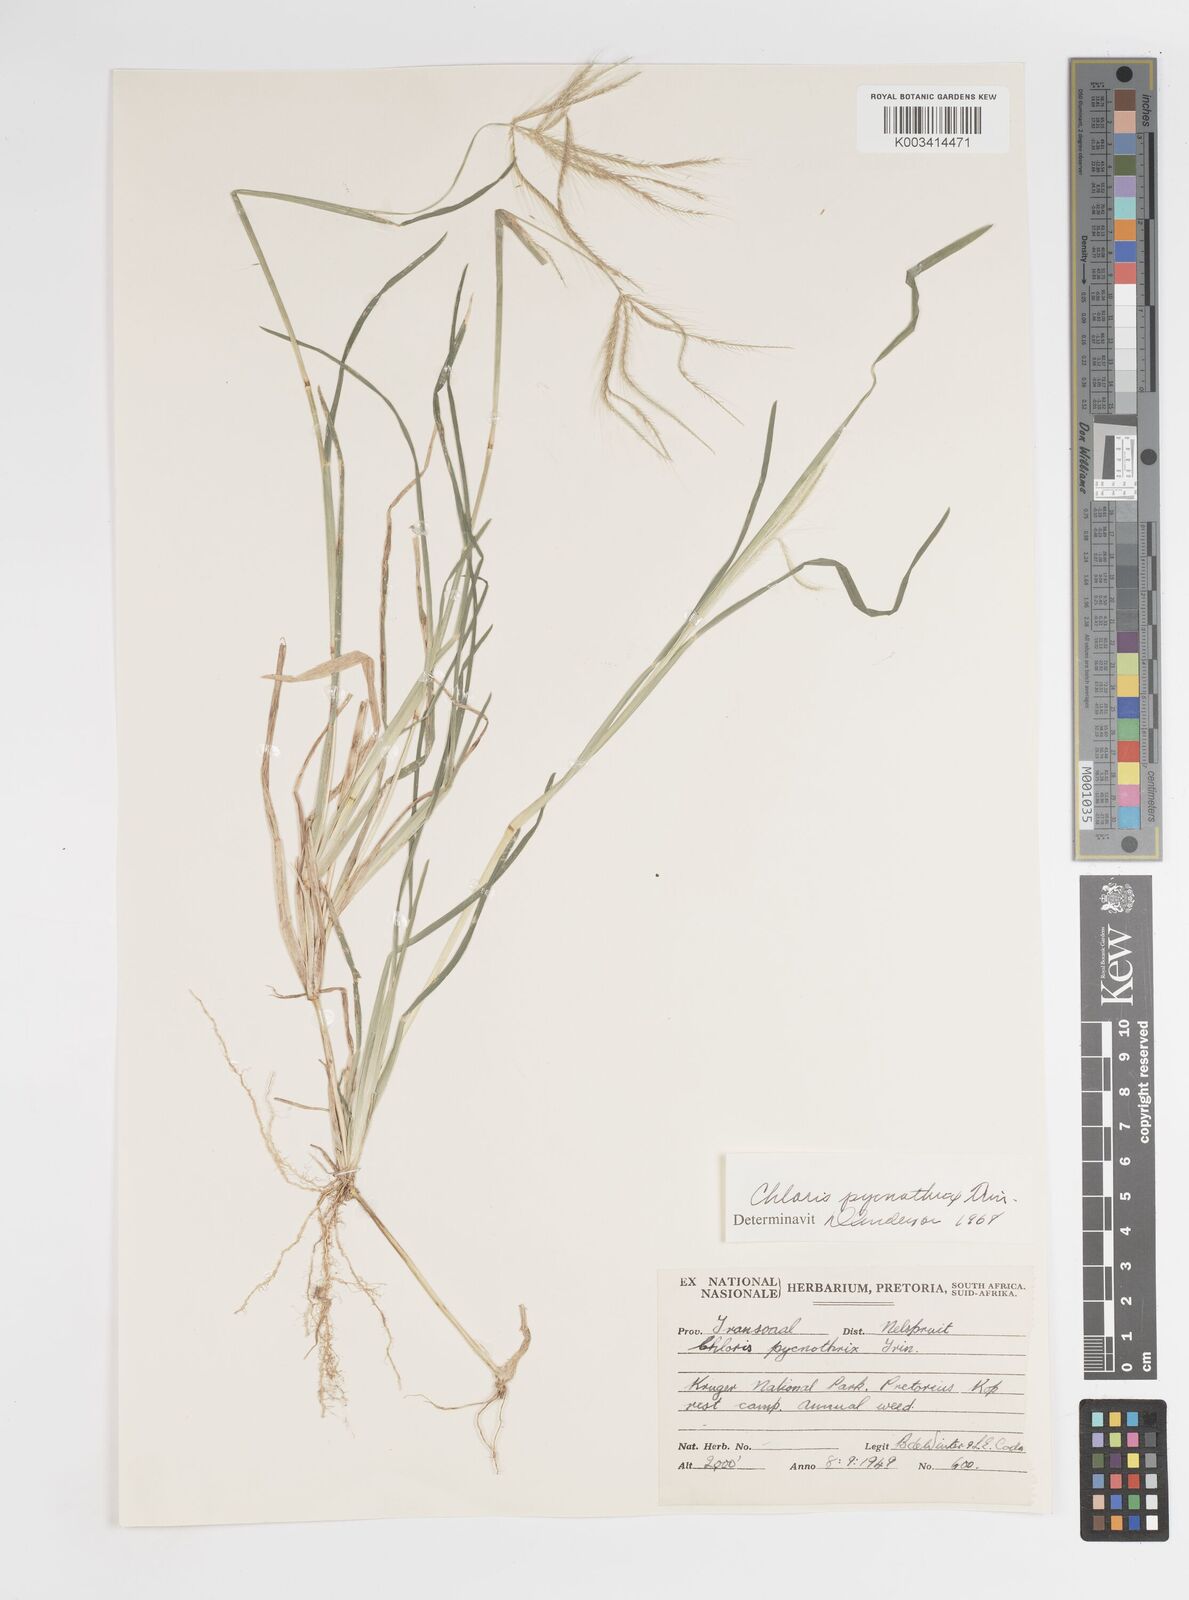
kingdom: Plantae
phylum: Tracheophyta
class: Liliopsida
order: Poales
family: Poaceae
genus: Chloris
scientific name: Chloris pycnothrix
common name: Spiderweb chloris
